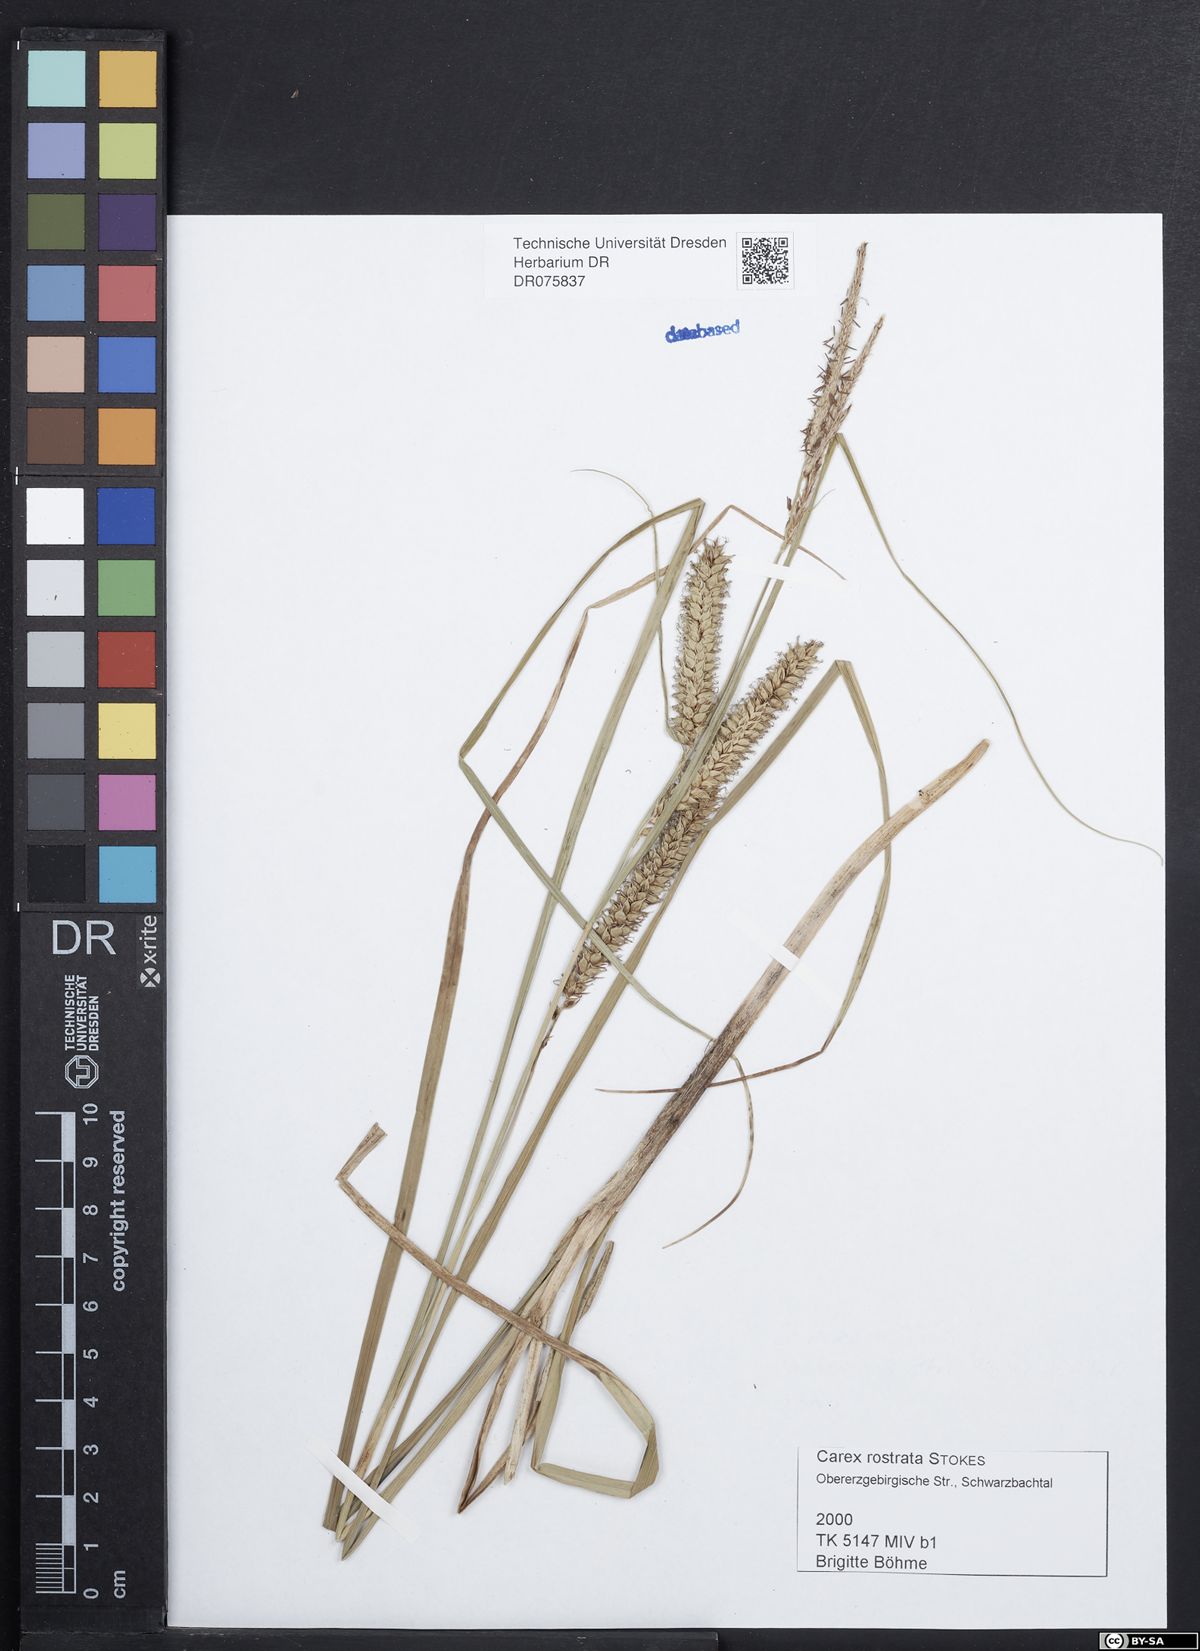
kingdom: Plantae
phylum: Tracheophyta
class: Liliopsida
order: Poales
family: Cyperaceae
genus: Carex
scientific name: Carex rostrata
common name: Bottle sedge
